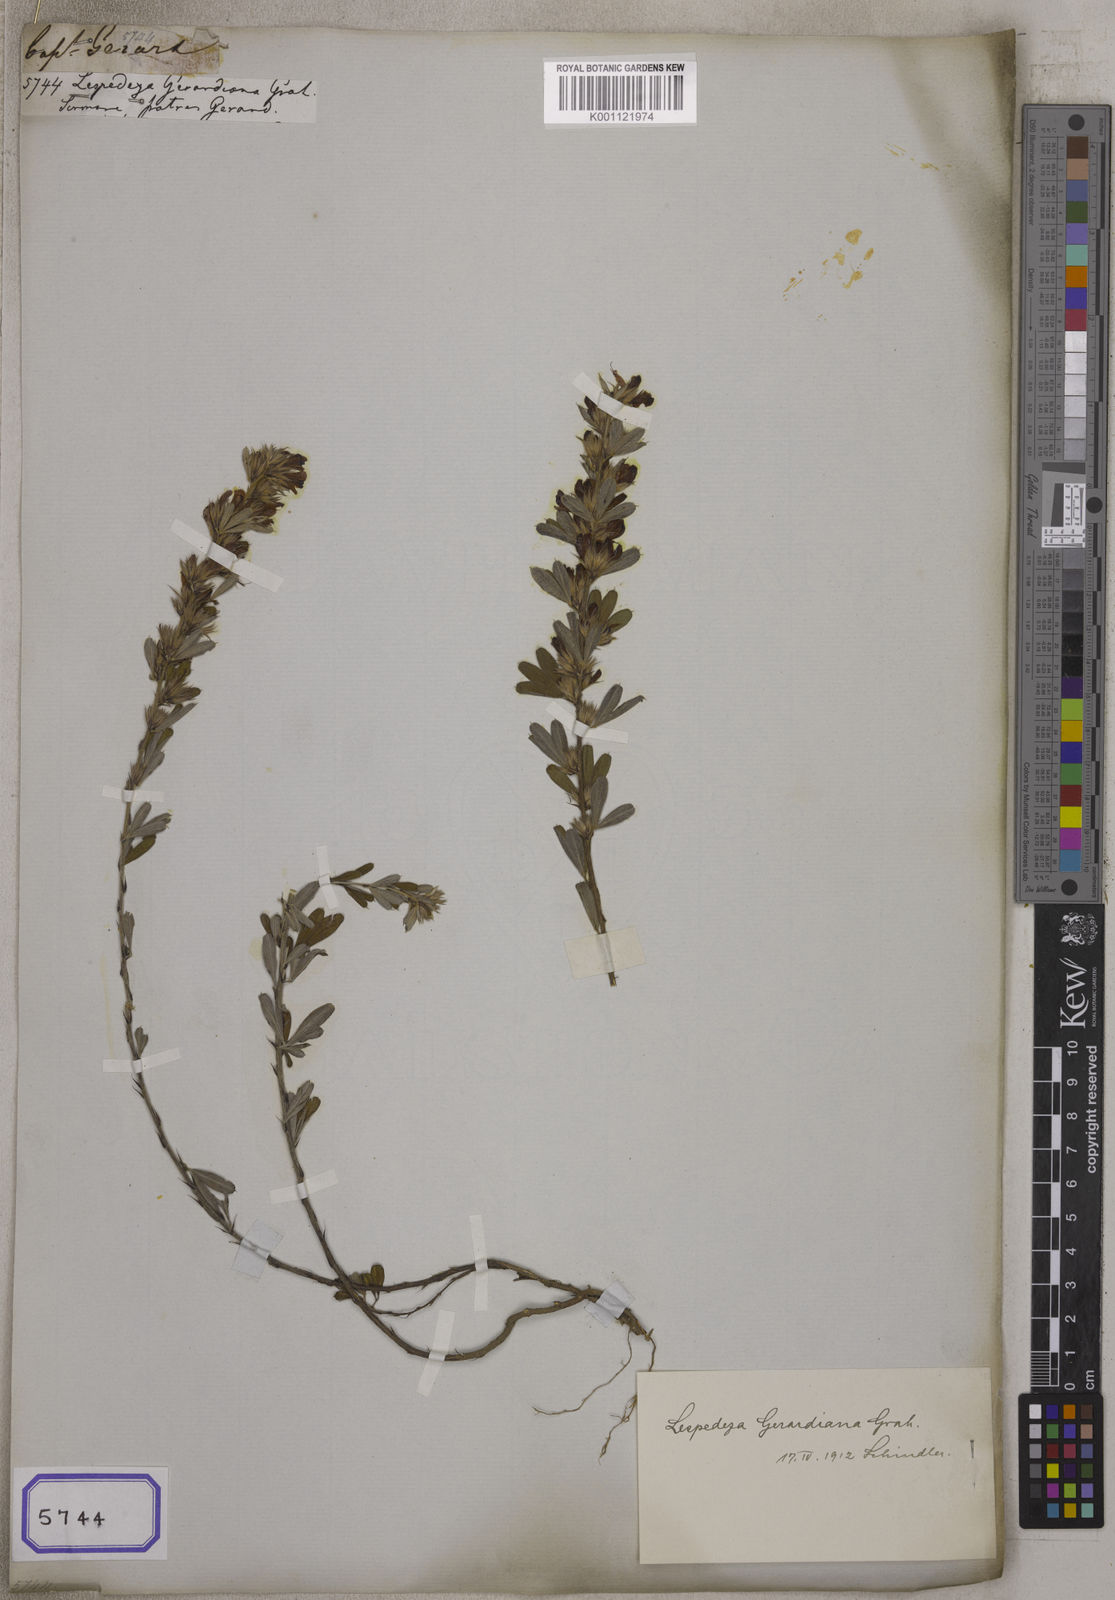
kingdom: Plantae
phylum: Tracheophyta
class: Magnoliopsida
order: Fabales
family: Fabaceae
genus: Lespedeza
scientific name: Lespedeza
